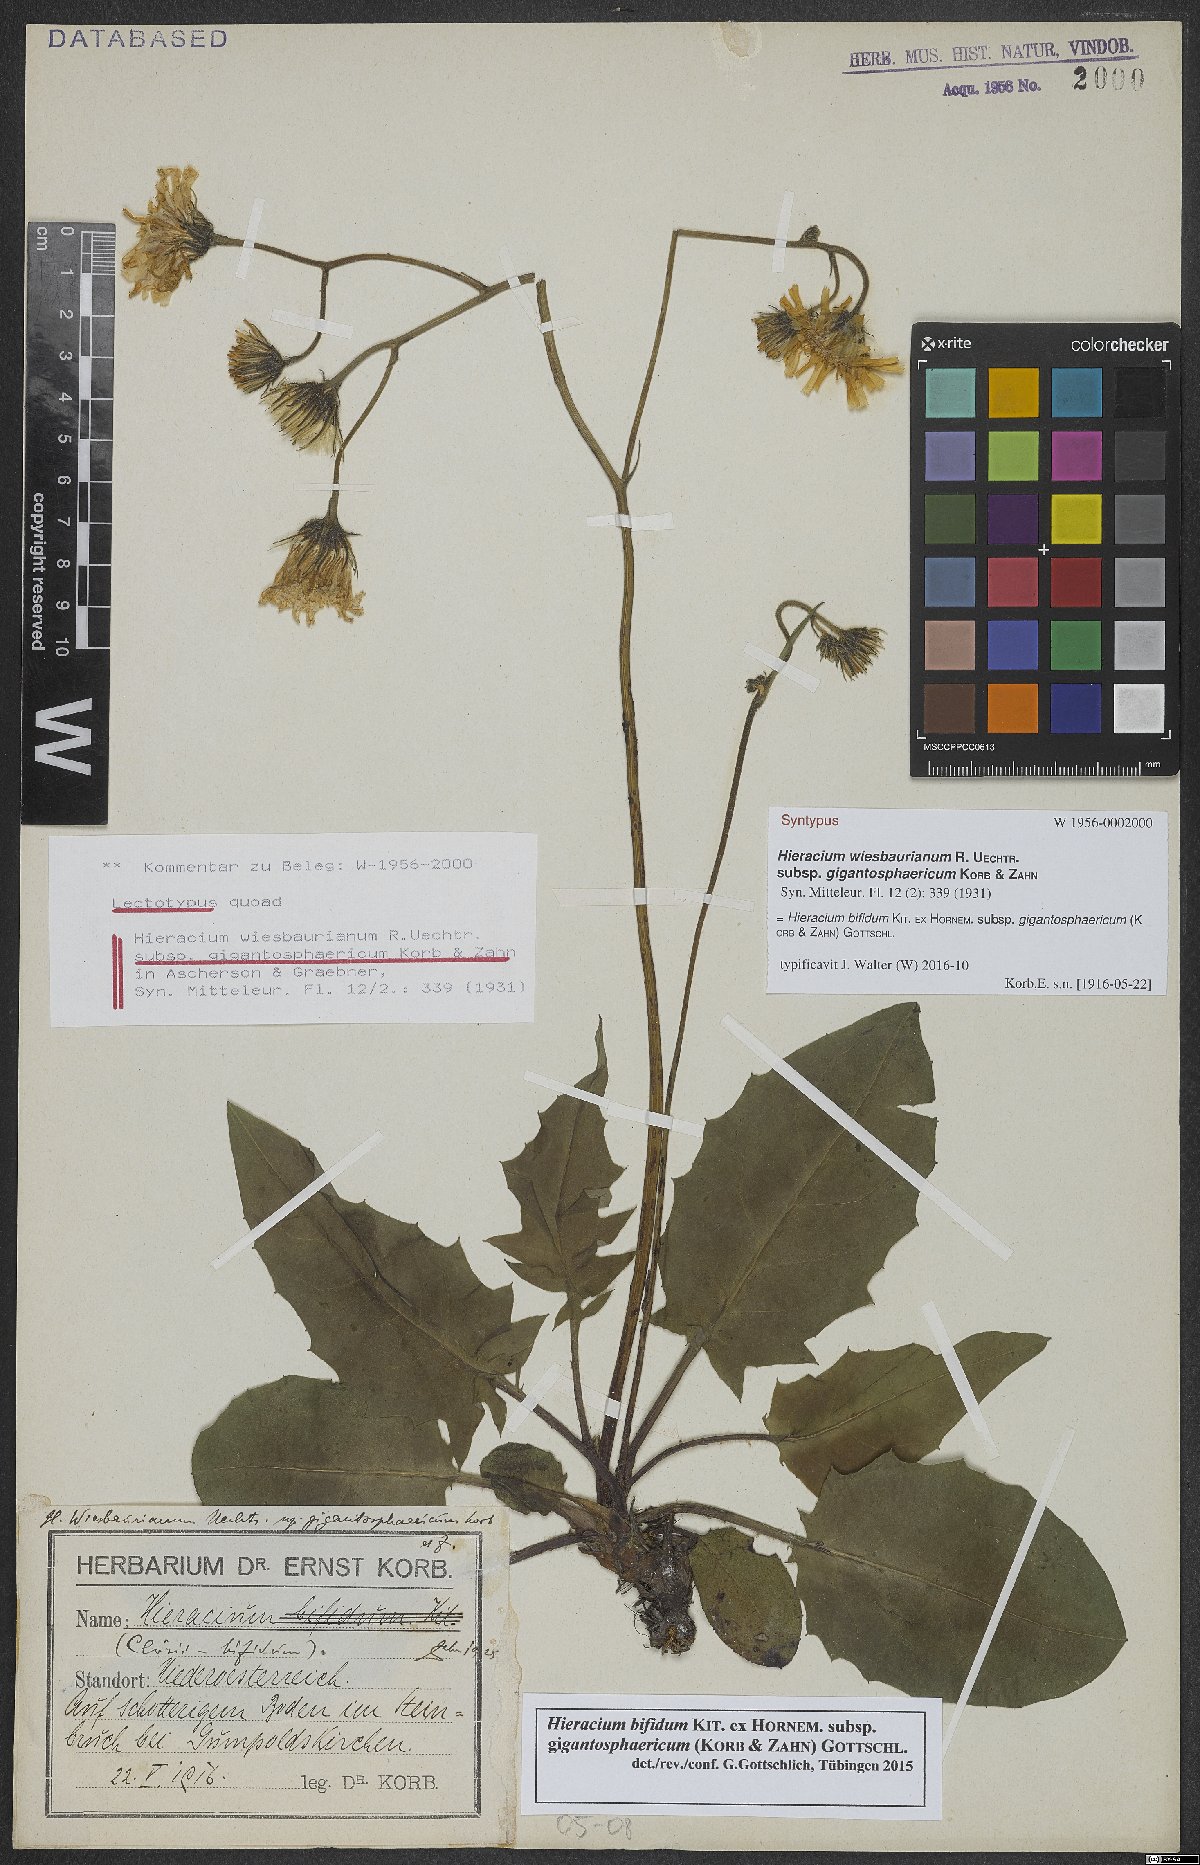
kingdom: Plantae
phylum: Tracheophyta
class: Magnoliopsida
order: Asterales
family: Asteraceae
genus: Hieracium
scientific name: Hieracium bifidum
